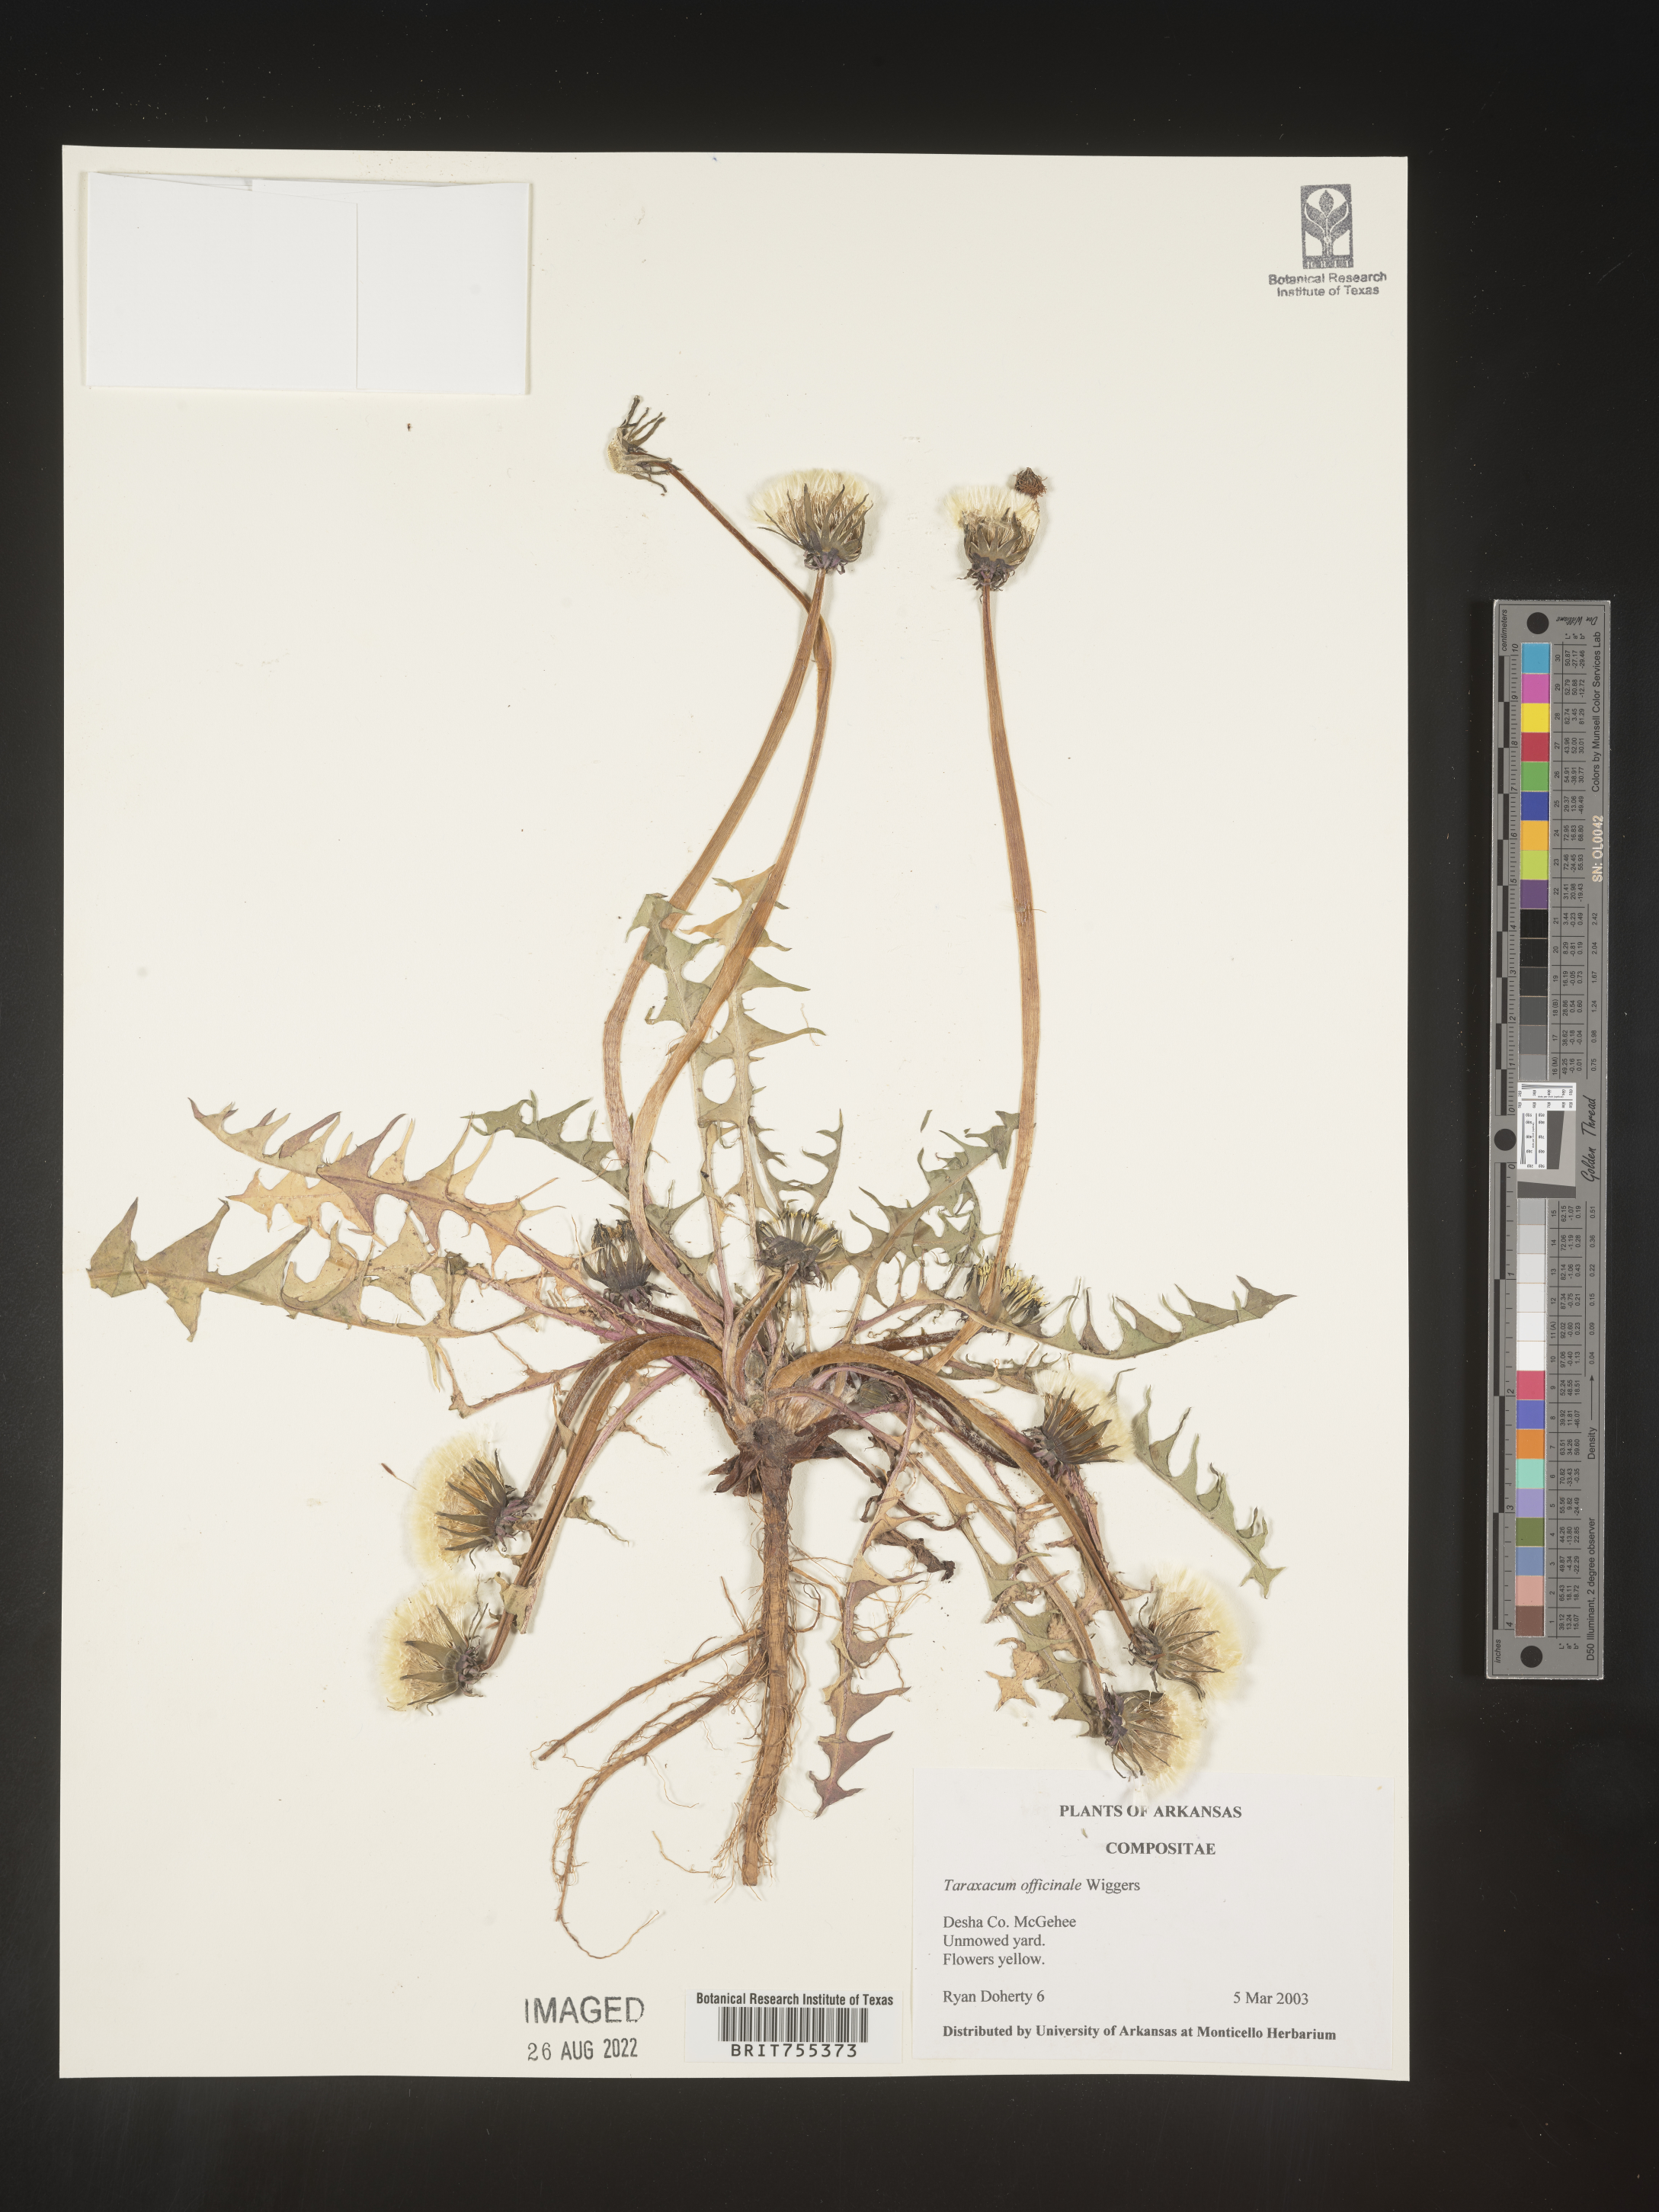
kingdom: Plantae
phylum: Tracheophyta
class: Magnoliopsida
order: Asterales
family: Asteraceae
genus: Taraxacum
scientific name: Taraxacum officinale
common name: Common dandelion
